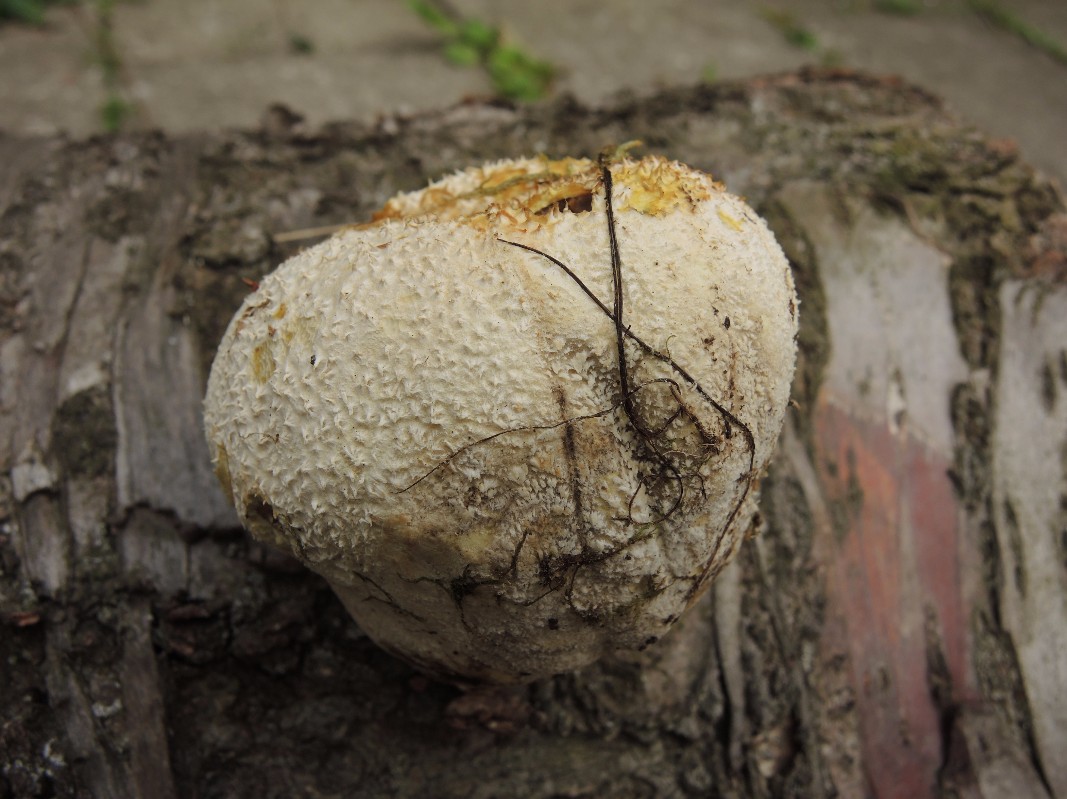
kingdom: Fungi
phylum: Basidiomycota
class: Agaricomycetes
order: Agaricales
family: Lycoperdaceae
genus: Bovistella
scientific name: Bovistella utriformis
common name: skællet støvbold
